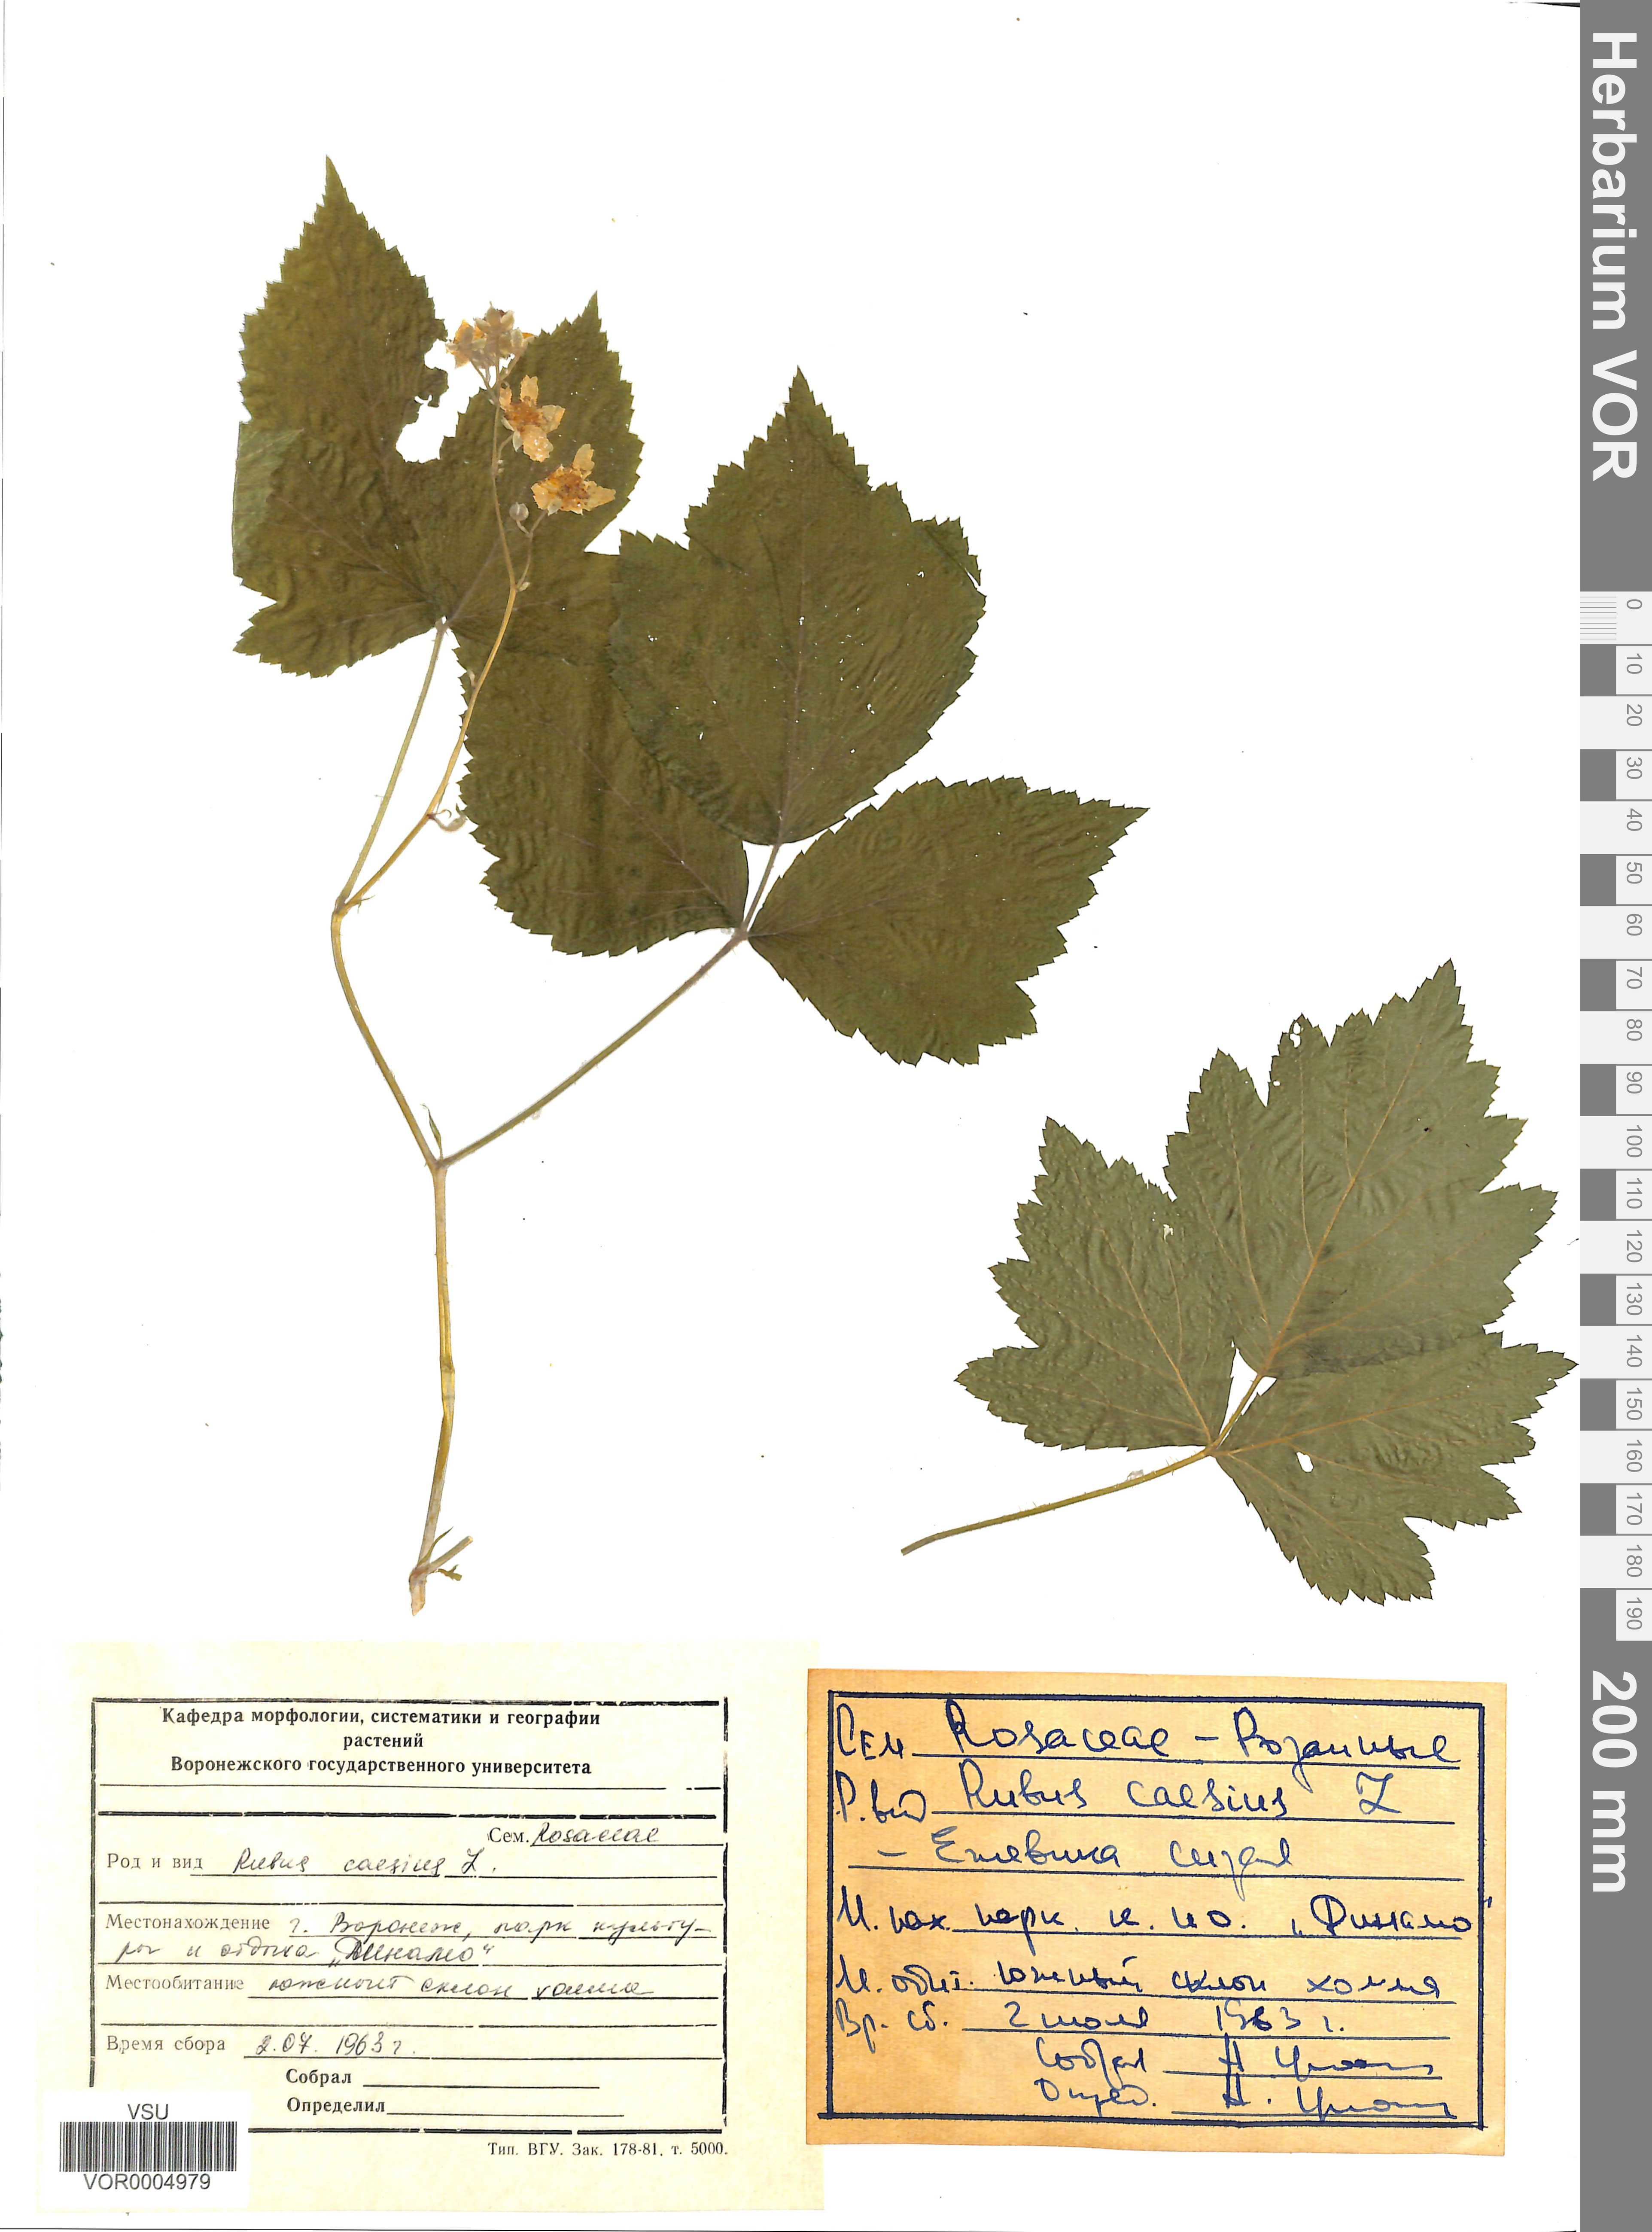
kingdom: Plantae
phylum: Tracheophyta
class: Magnoliopsida
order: Rosales
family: Rosaceae
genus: Rubus
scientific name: Rubus caesius
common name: Dewberry
